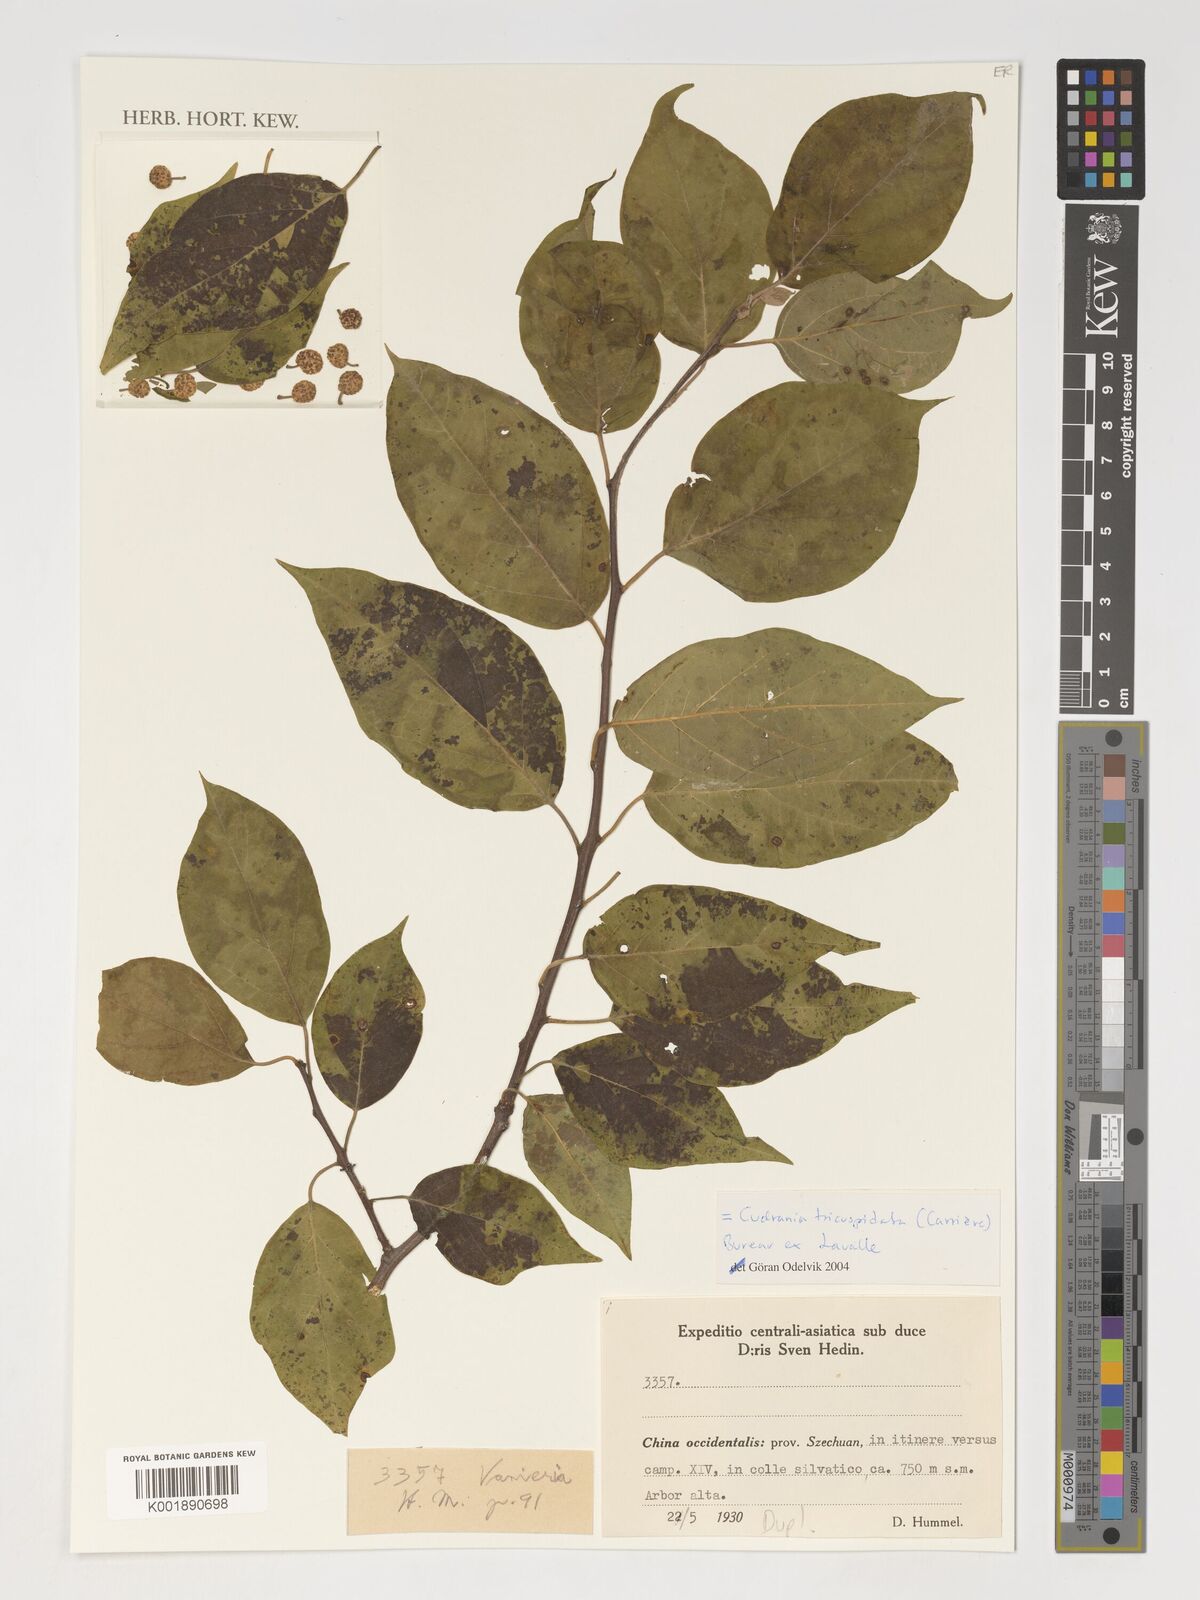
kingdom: Plantae
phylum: Tracheophyta
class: Magnoliopsida
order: Rosales
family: Moraceae
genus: Maclura
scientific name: Maclura tricuspidata
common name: Storehousebush
